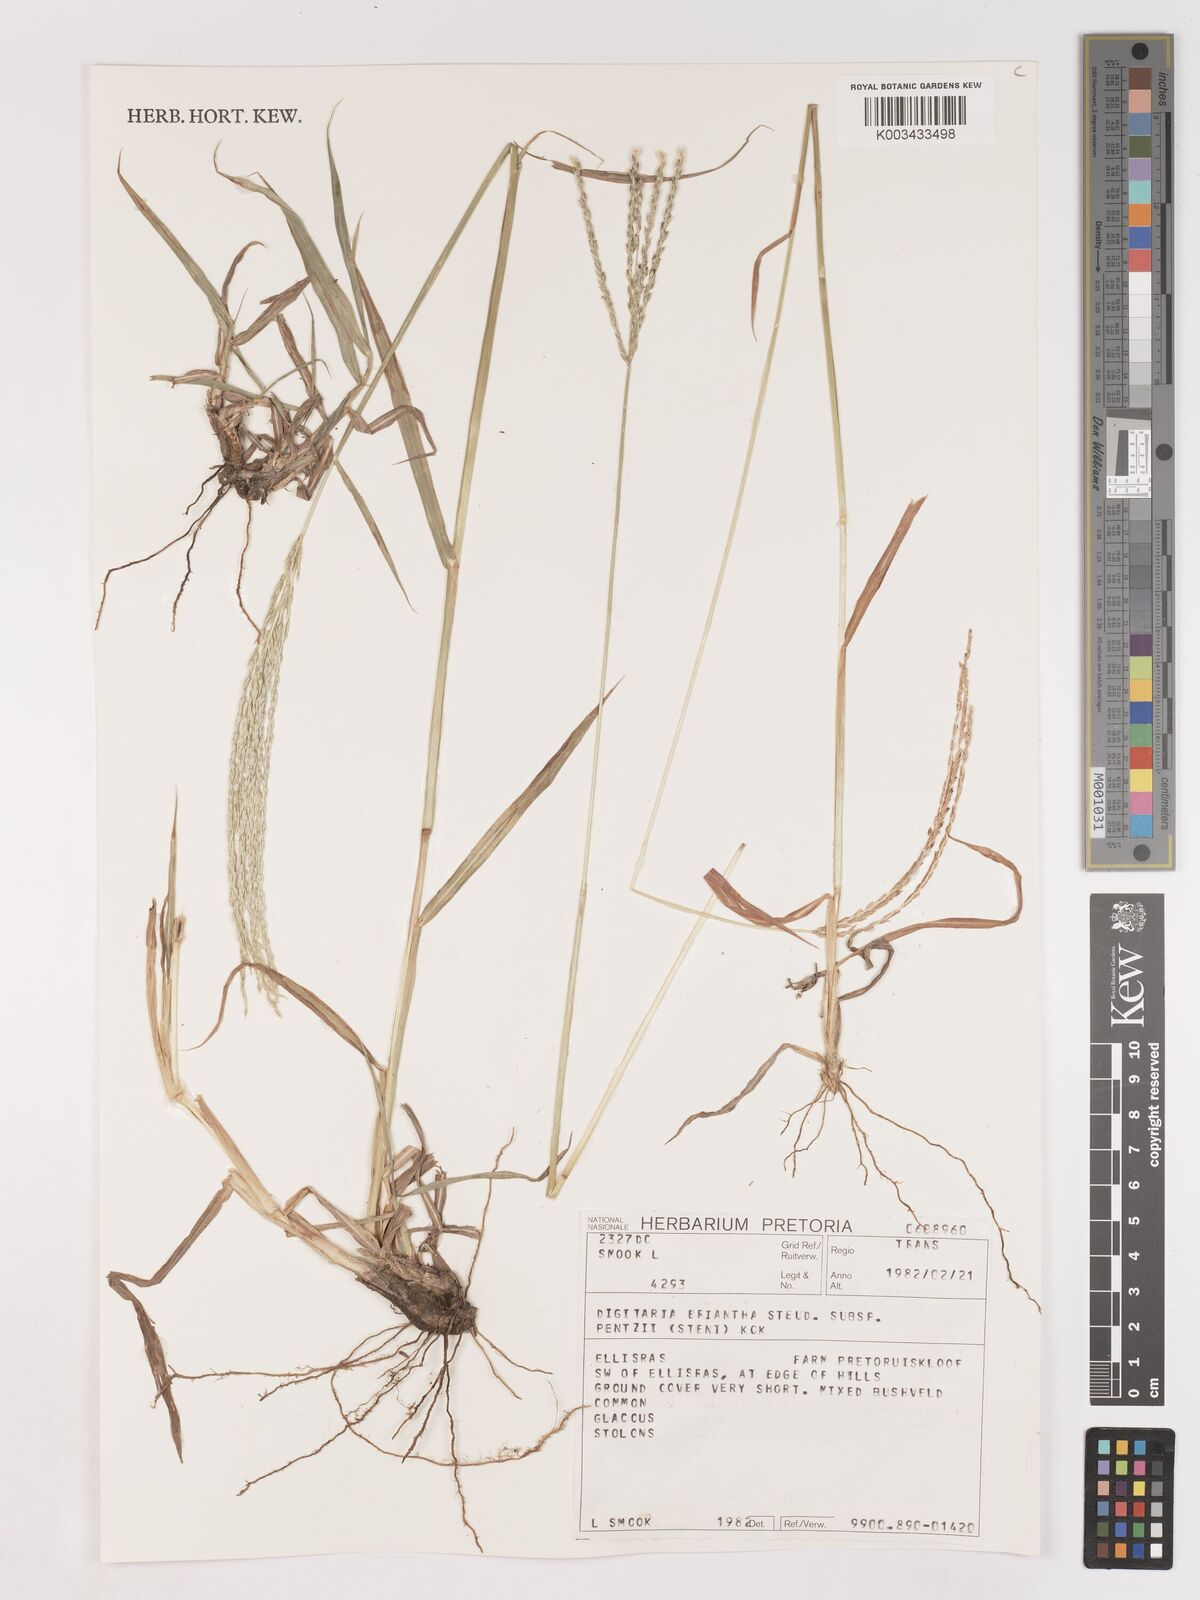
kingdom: Plantae
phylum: Tracheophyta
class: Liliopsida
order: Poales
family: Poaceae
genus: Digitaria
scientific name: Digitaria eriantha
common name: Digitgrass
